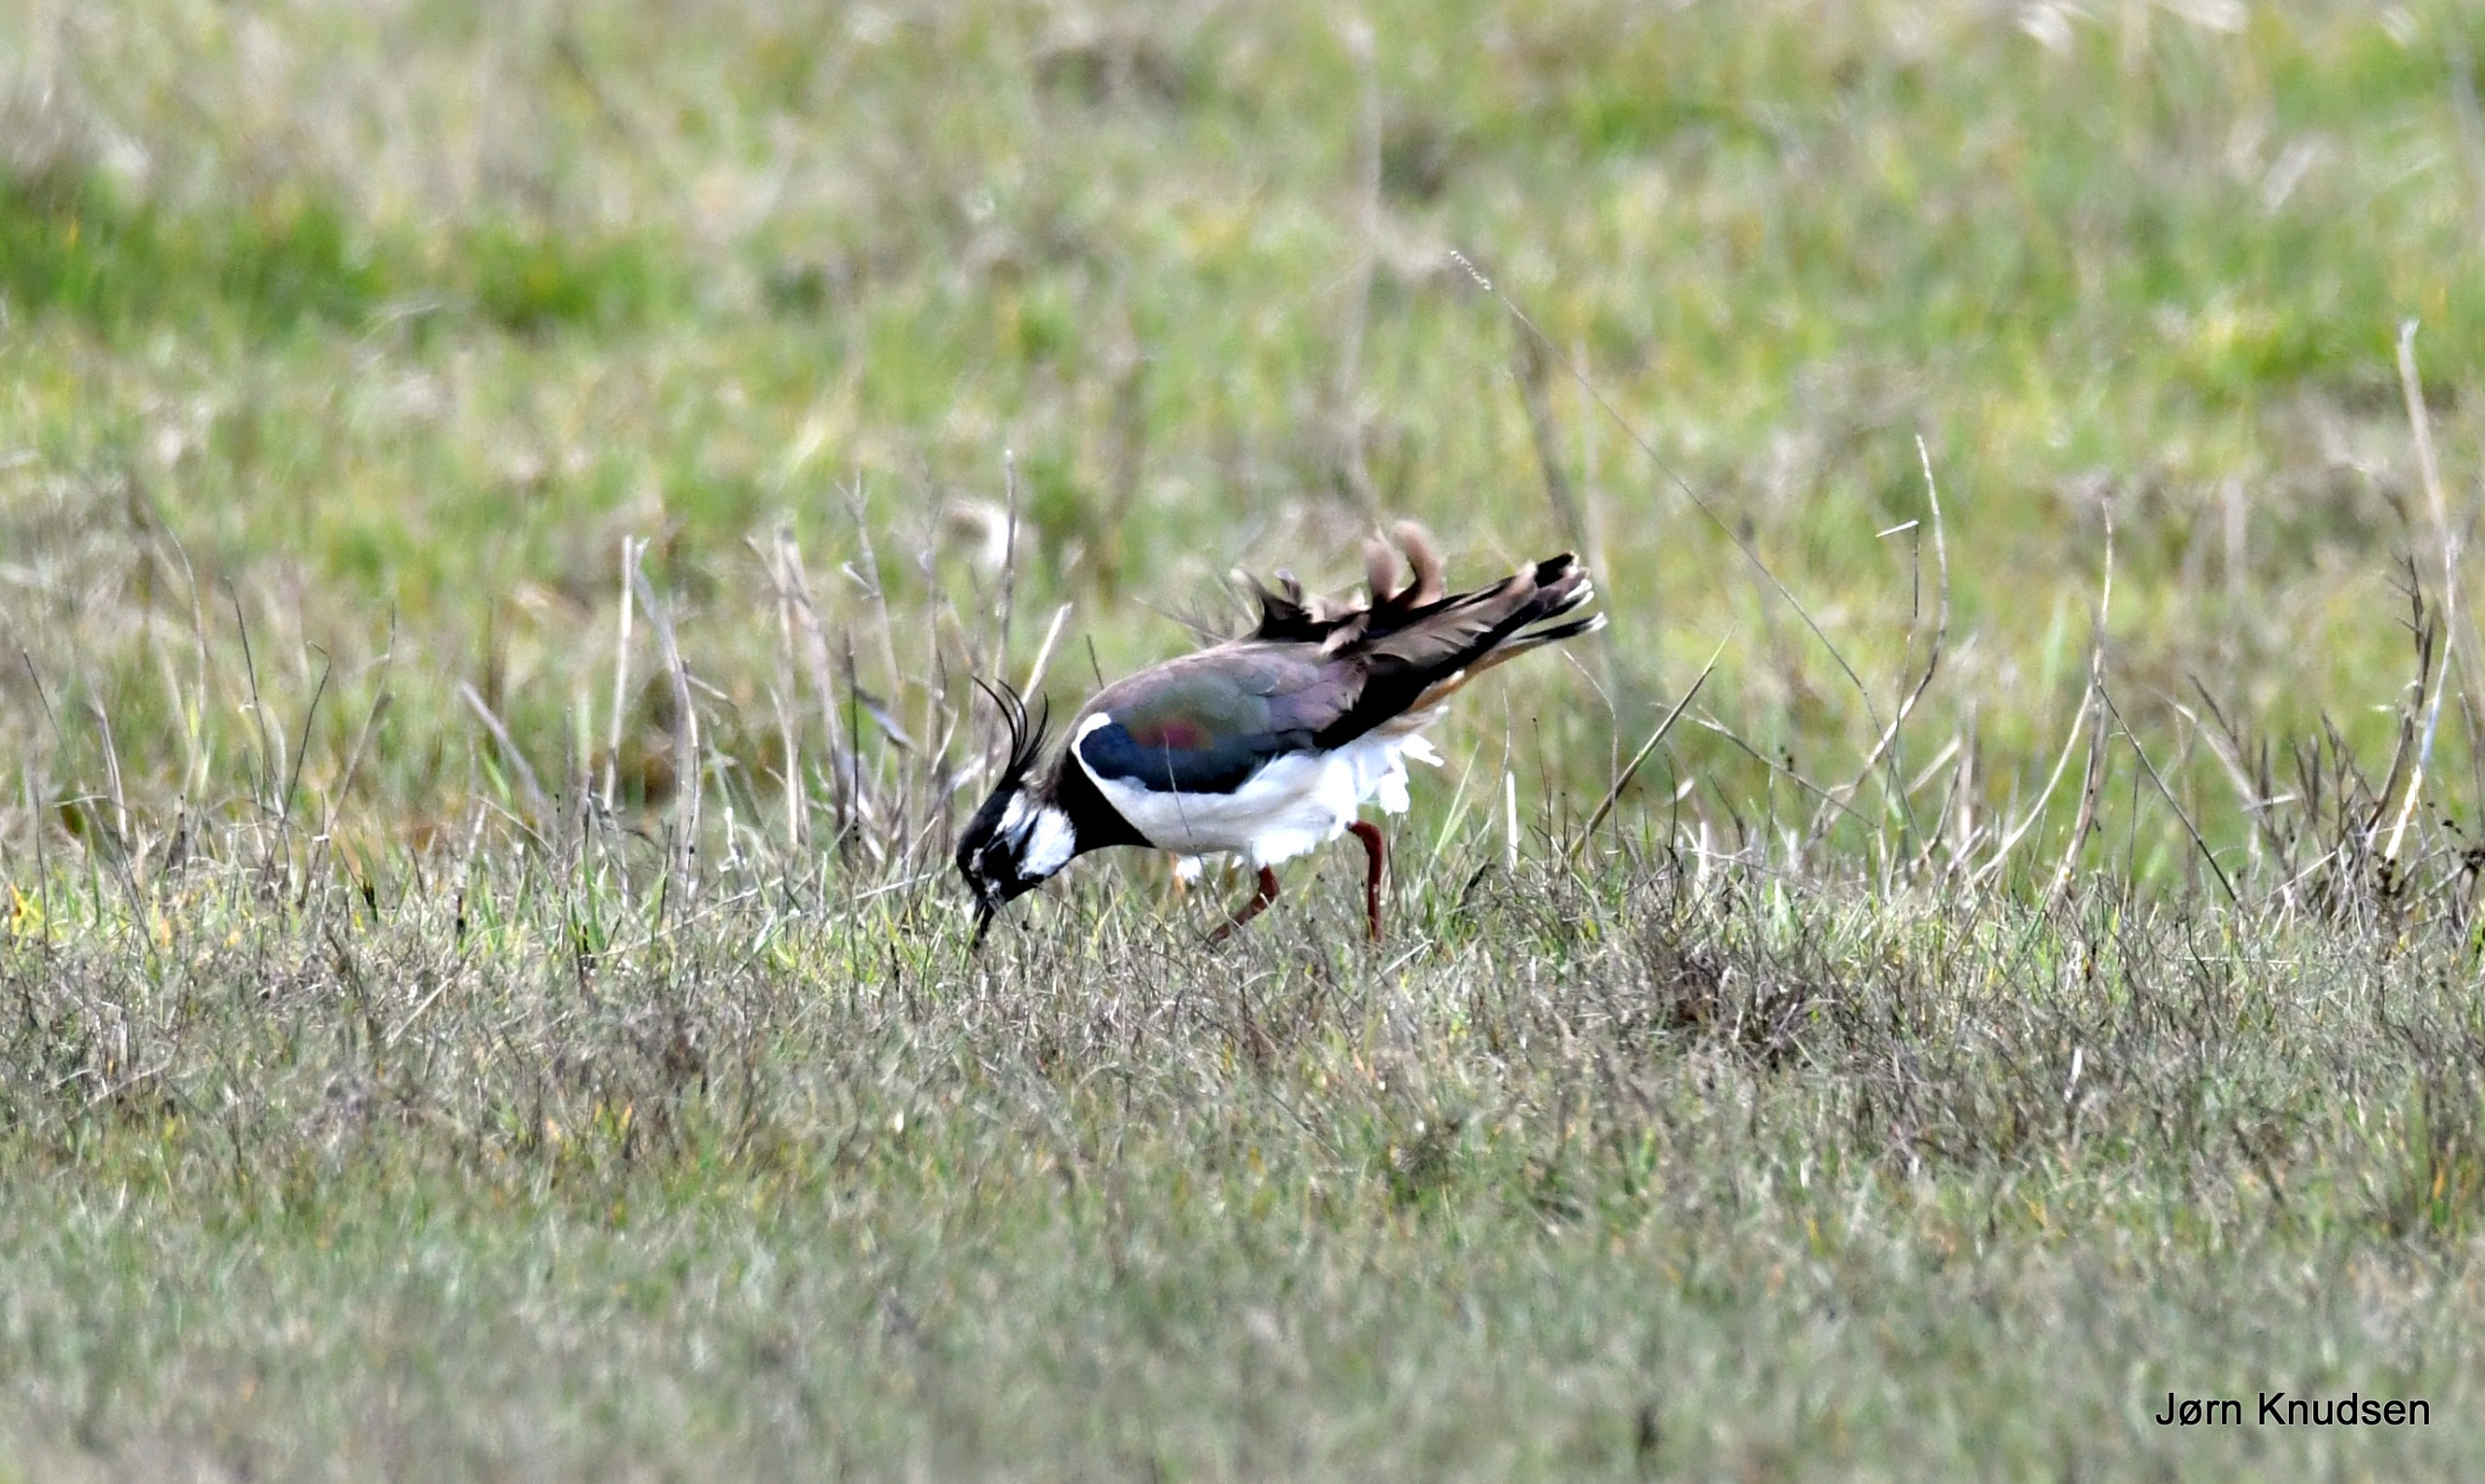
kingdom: Animalia
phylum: Chordata
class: Aves
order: Charadriiformes
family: Charadriidae
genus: Vanellus
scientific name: Vanellus vanellus
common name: Vibe
